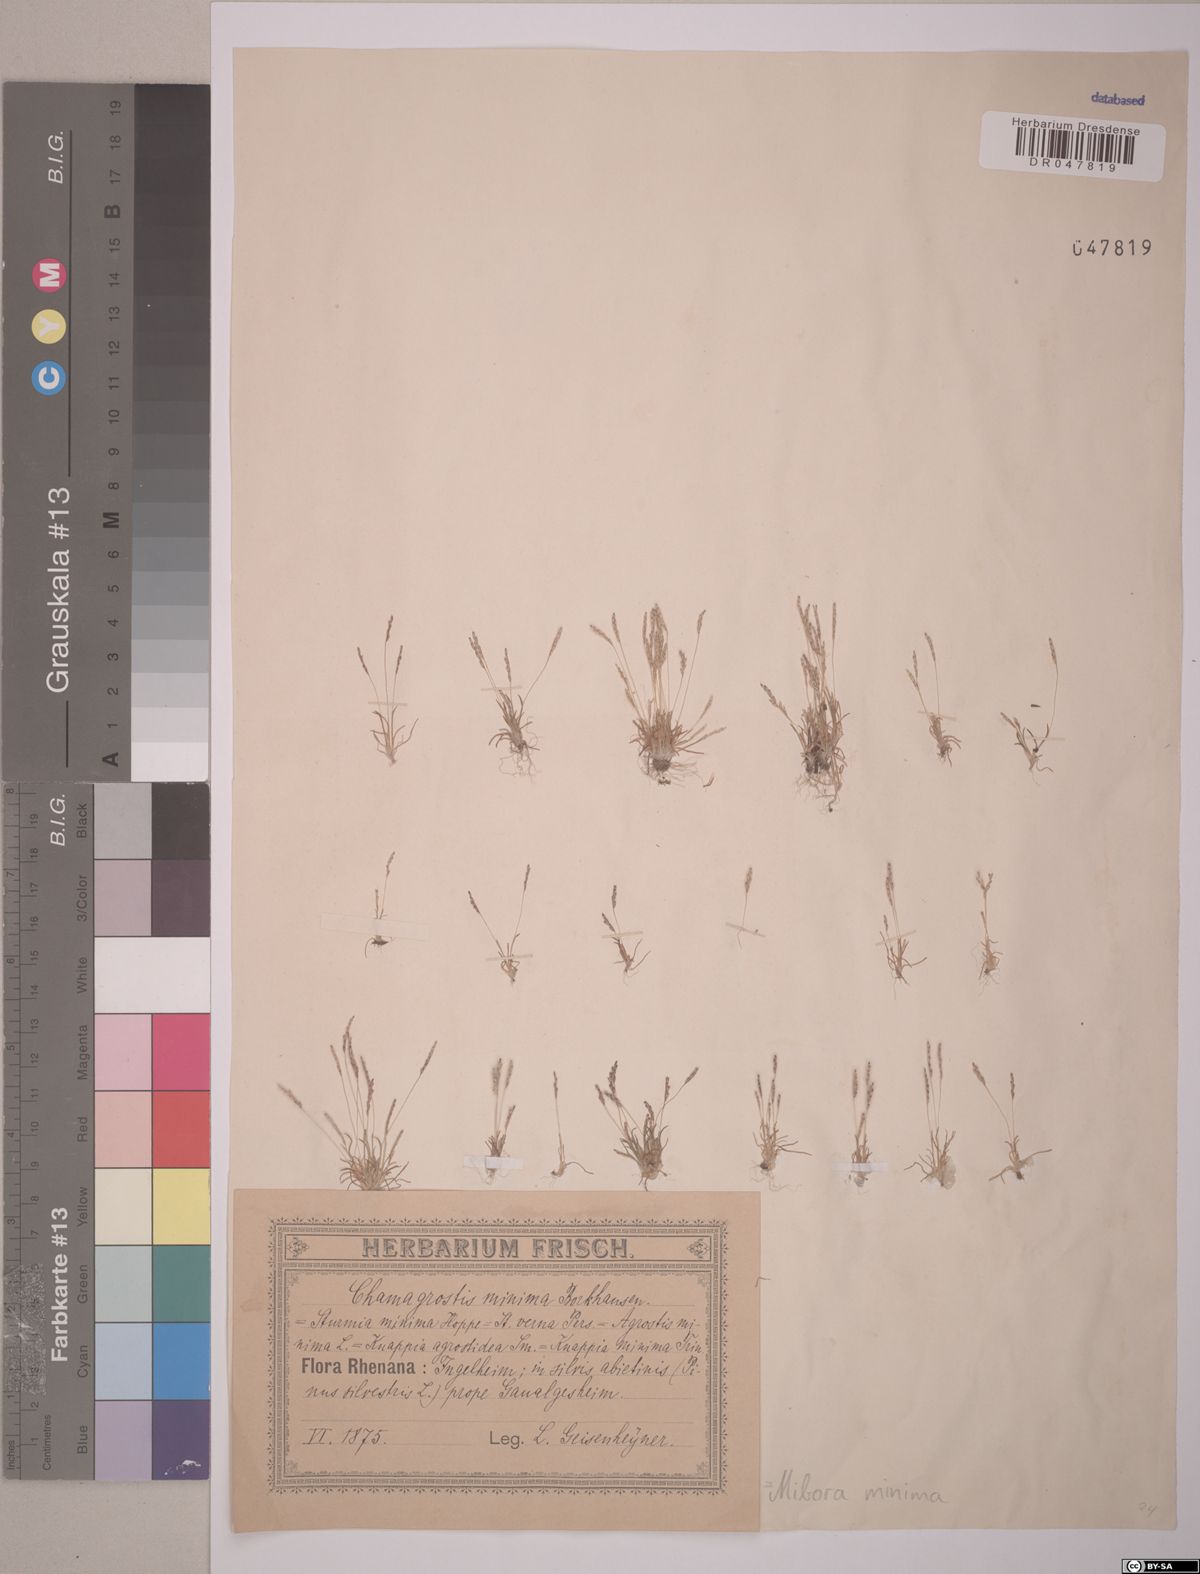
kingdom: Plantae
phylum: Tracheophyta
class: Liliopsida
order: Poales
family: Poaceae
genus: Mibora
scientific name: Mibora minima
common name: Early sand-grass
